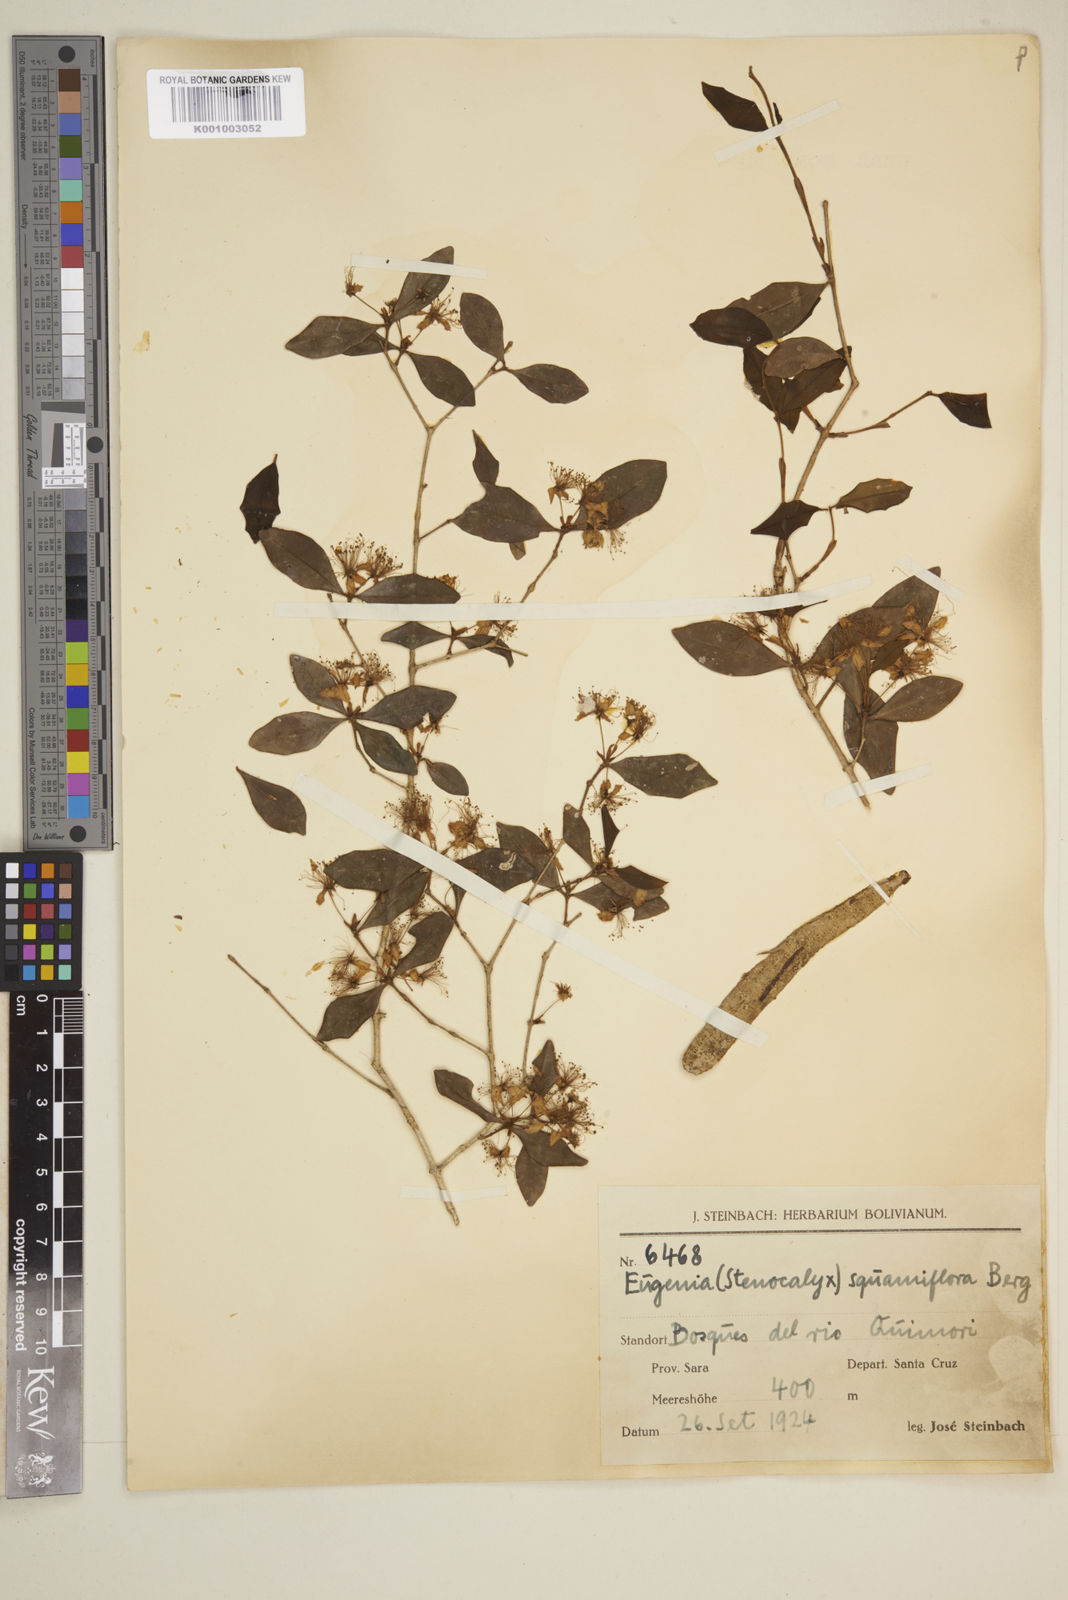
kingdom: Plantae
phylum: Tracheophyta
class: Magnoliopsida
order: Myrtales
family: Myrtaceae
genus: Eugenia
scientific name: Eugenia squamiflora
